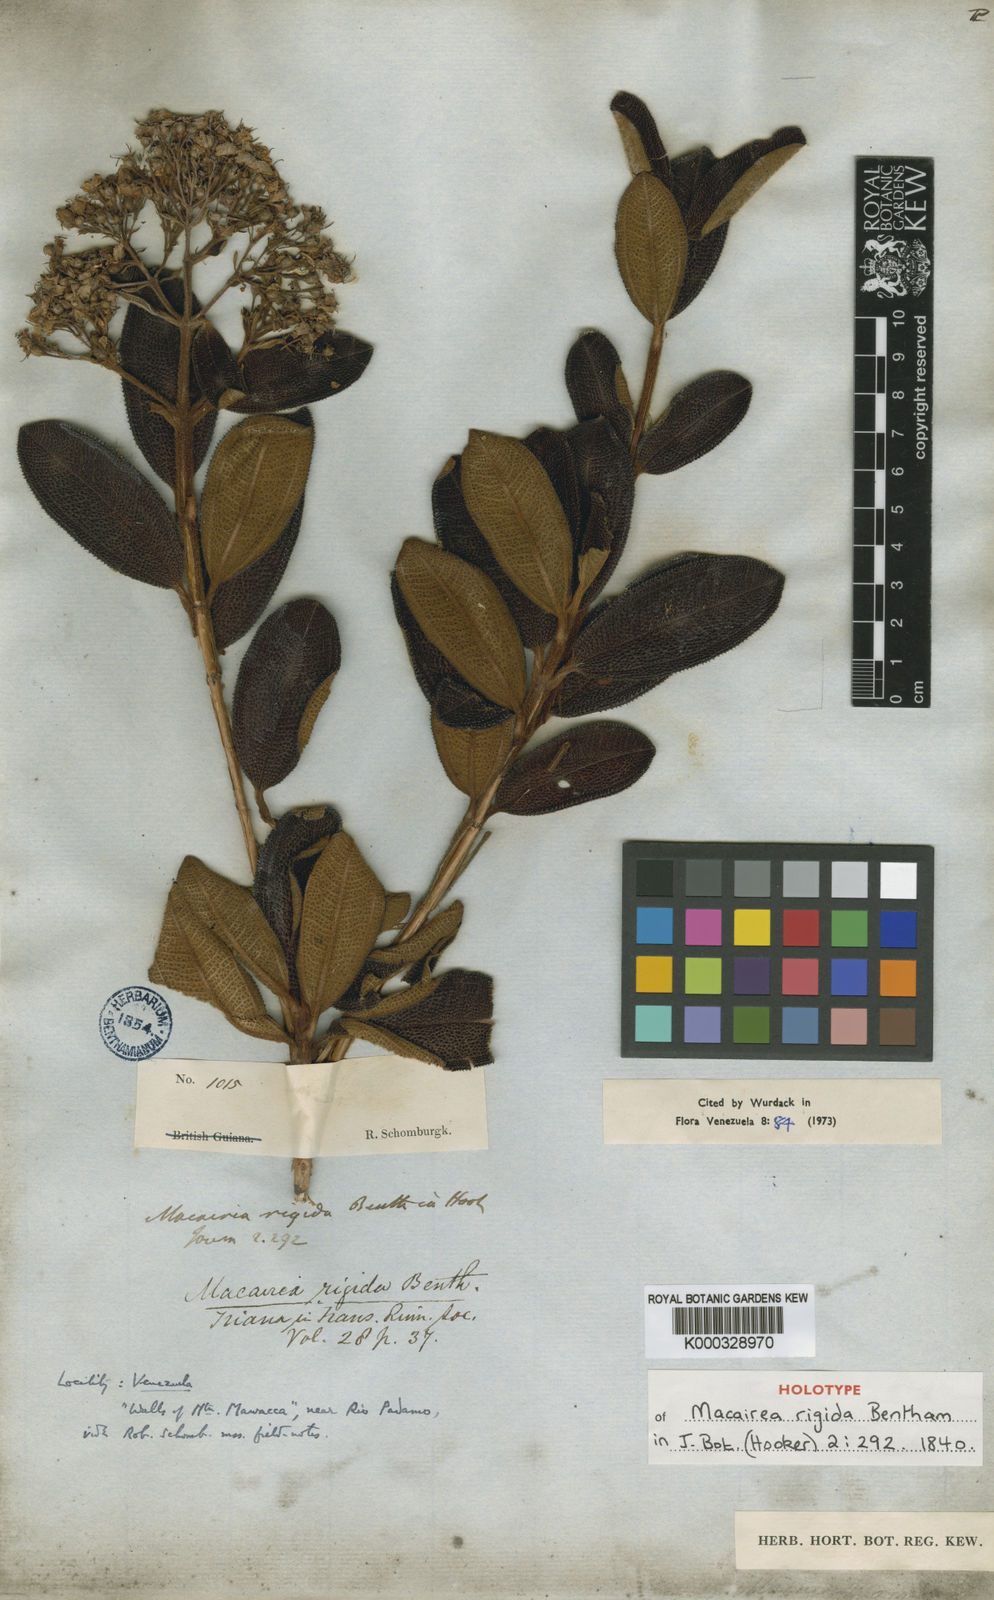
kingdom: Plantae
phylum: Tracheophyta
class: Magnoliopsida
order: Myrtales
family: Melastomataceae
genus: Macairea
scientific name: Macairea rigida
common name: Rigid macairea
